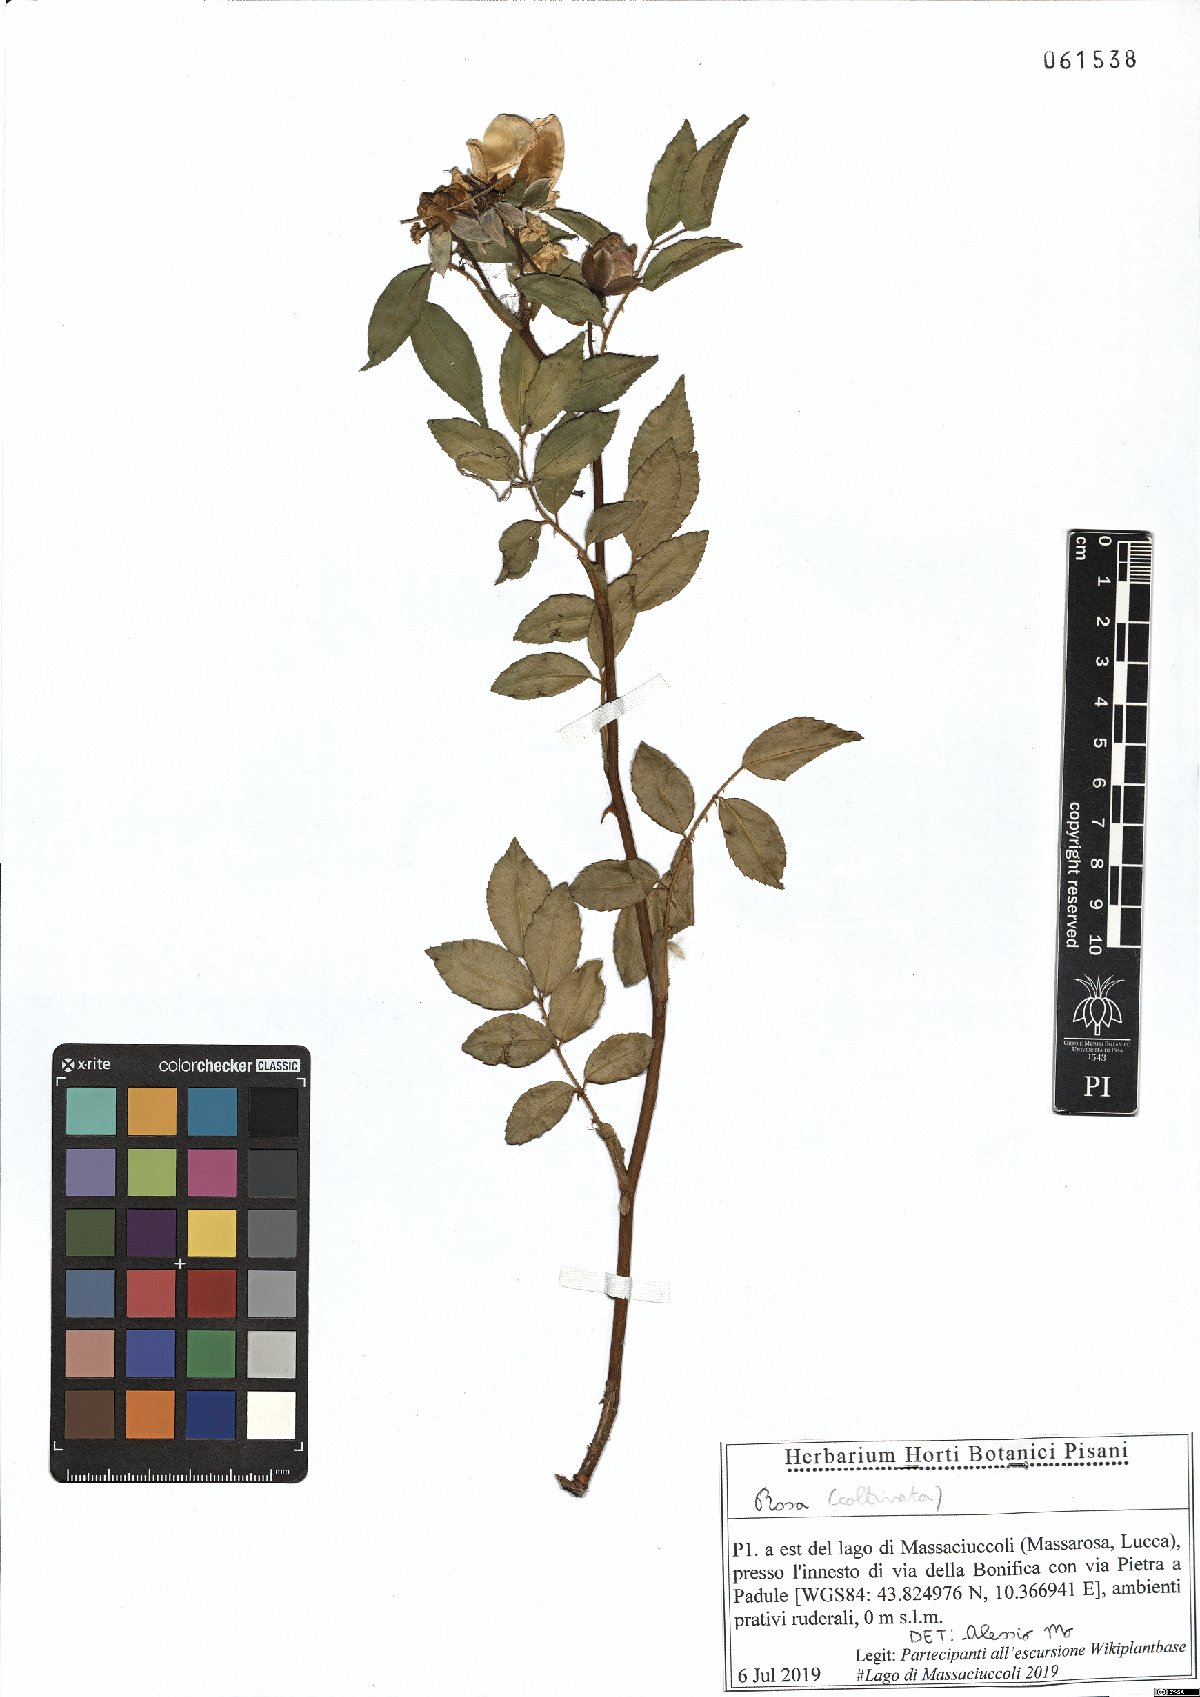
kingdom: Plantae
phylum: Tracheophyta
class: Magnoliopsida
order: Rosales
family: Rosaceae
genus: Rosa
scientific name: Rosa
